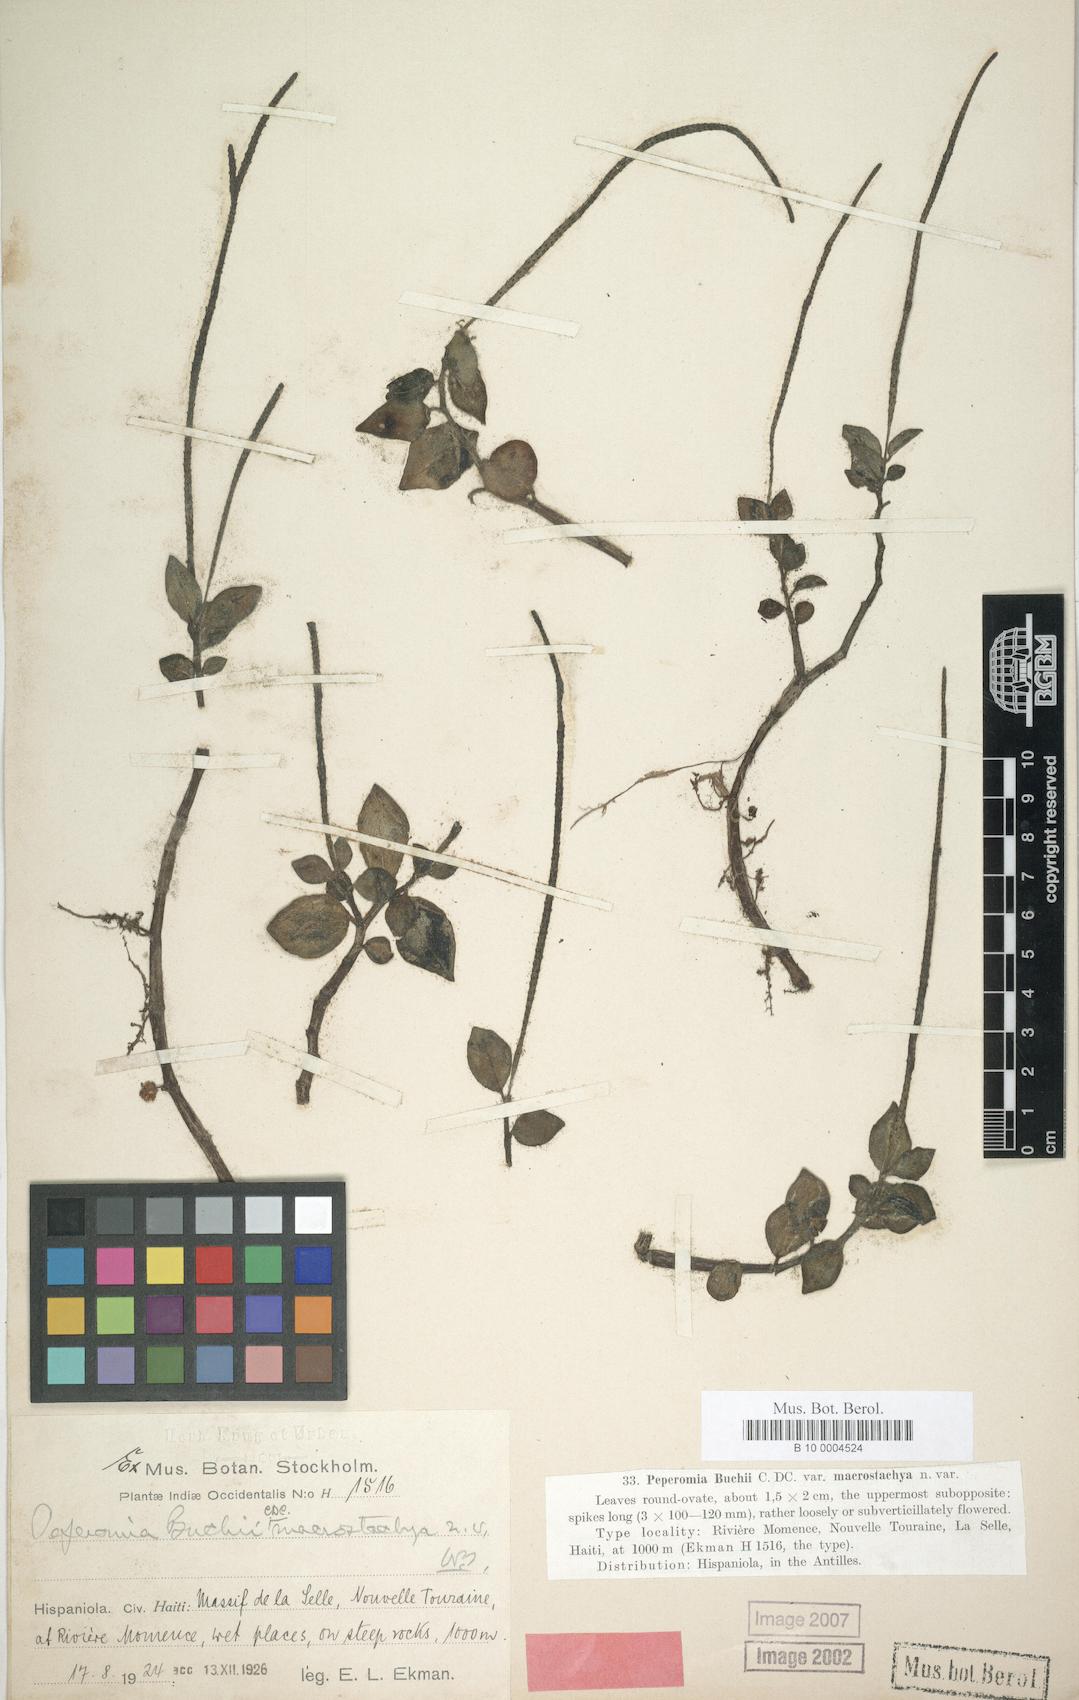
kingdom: Plantae
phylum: Tracheophyta
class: Magnoliopsida
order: Piperales
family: Piperaceae
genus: Peperomia
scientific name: Peperomia glabella
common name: Cypress peperomia
